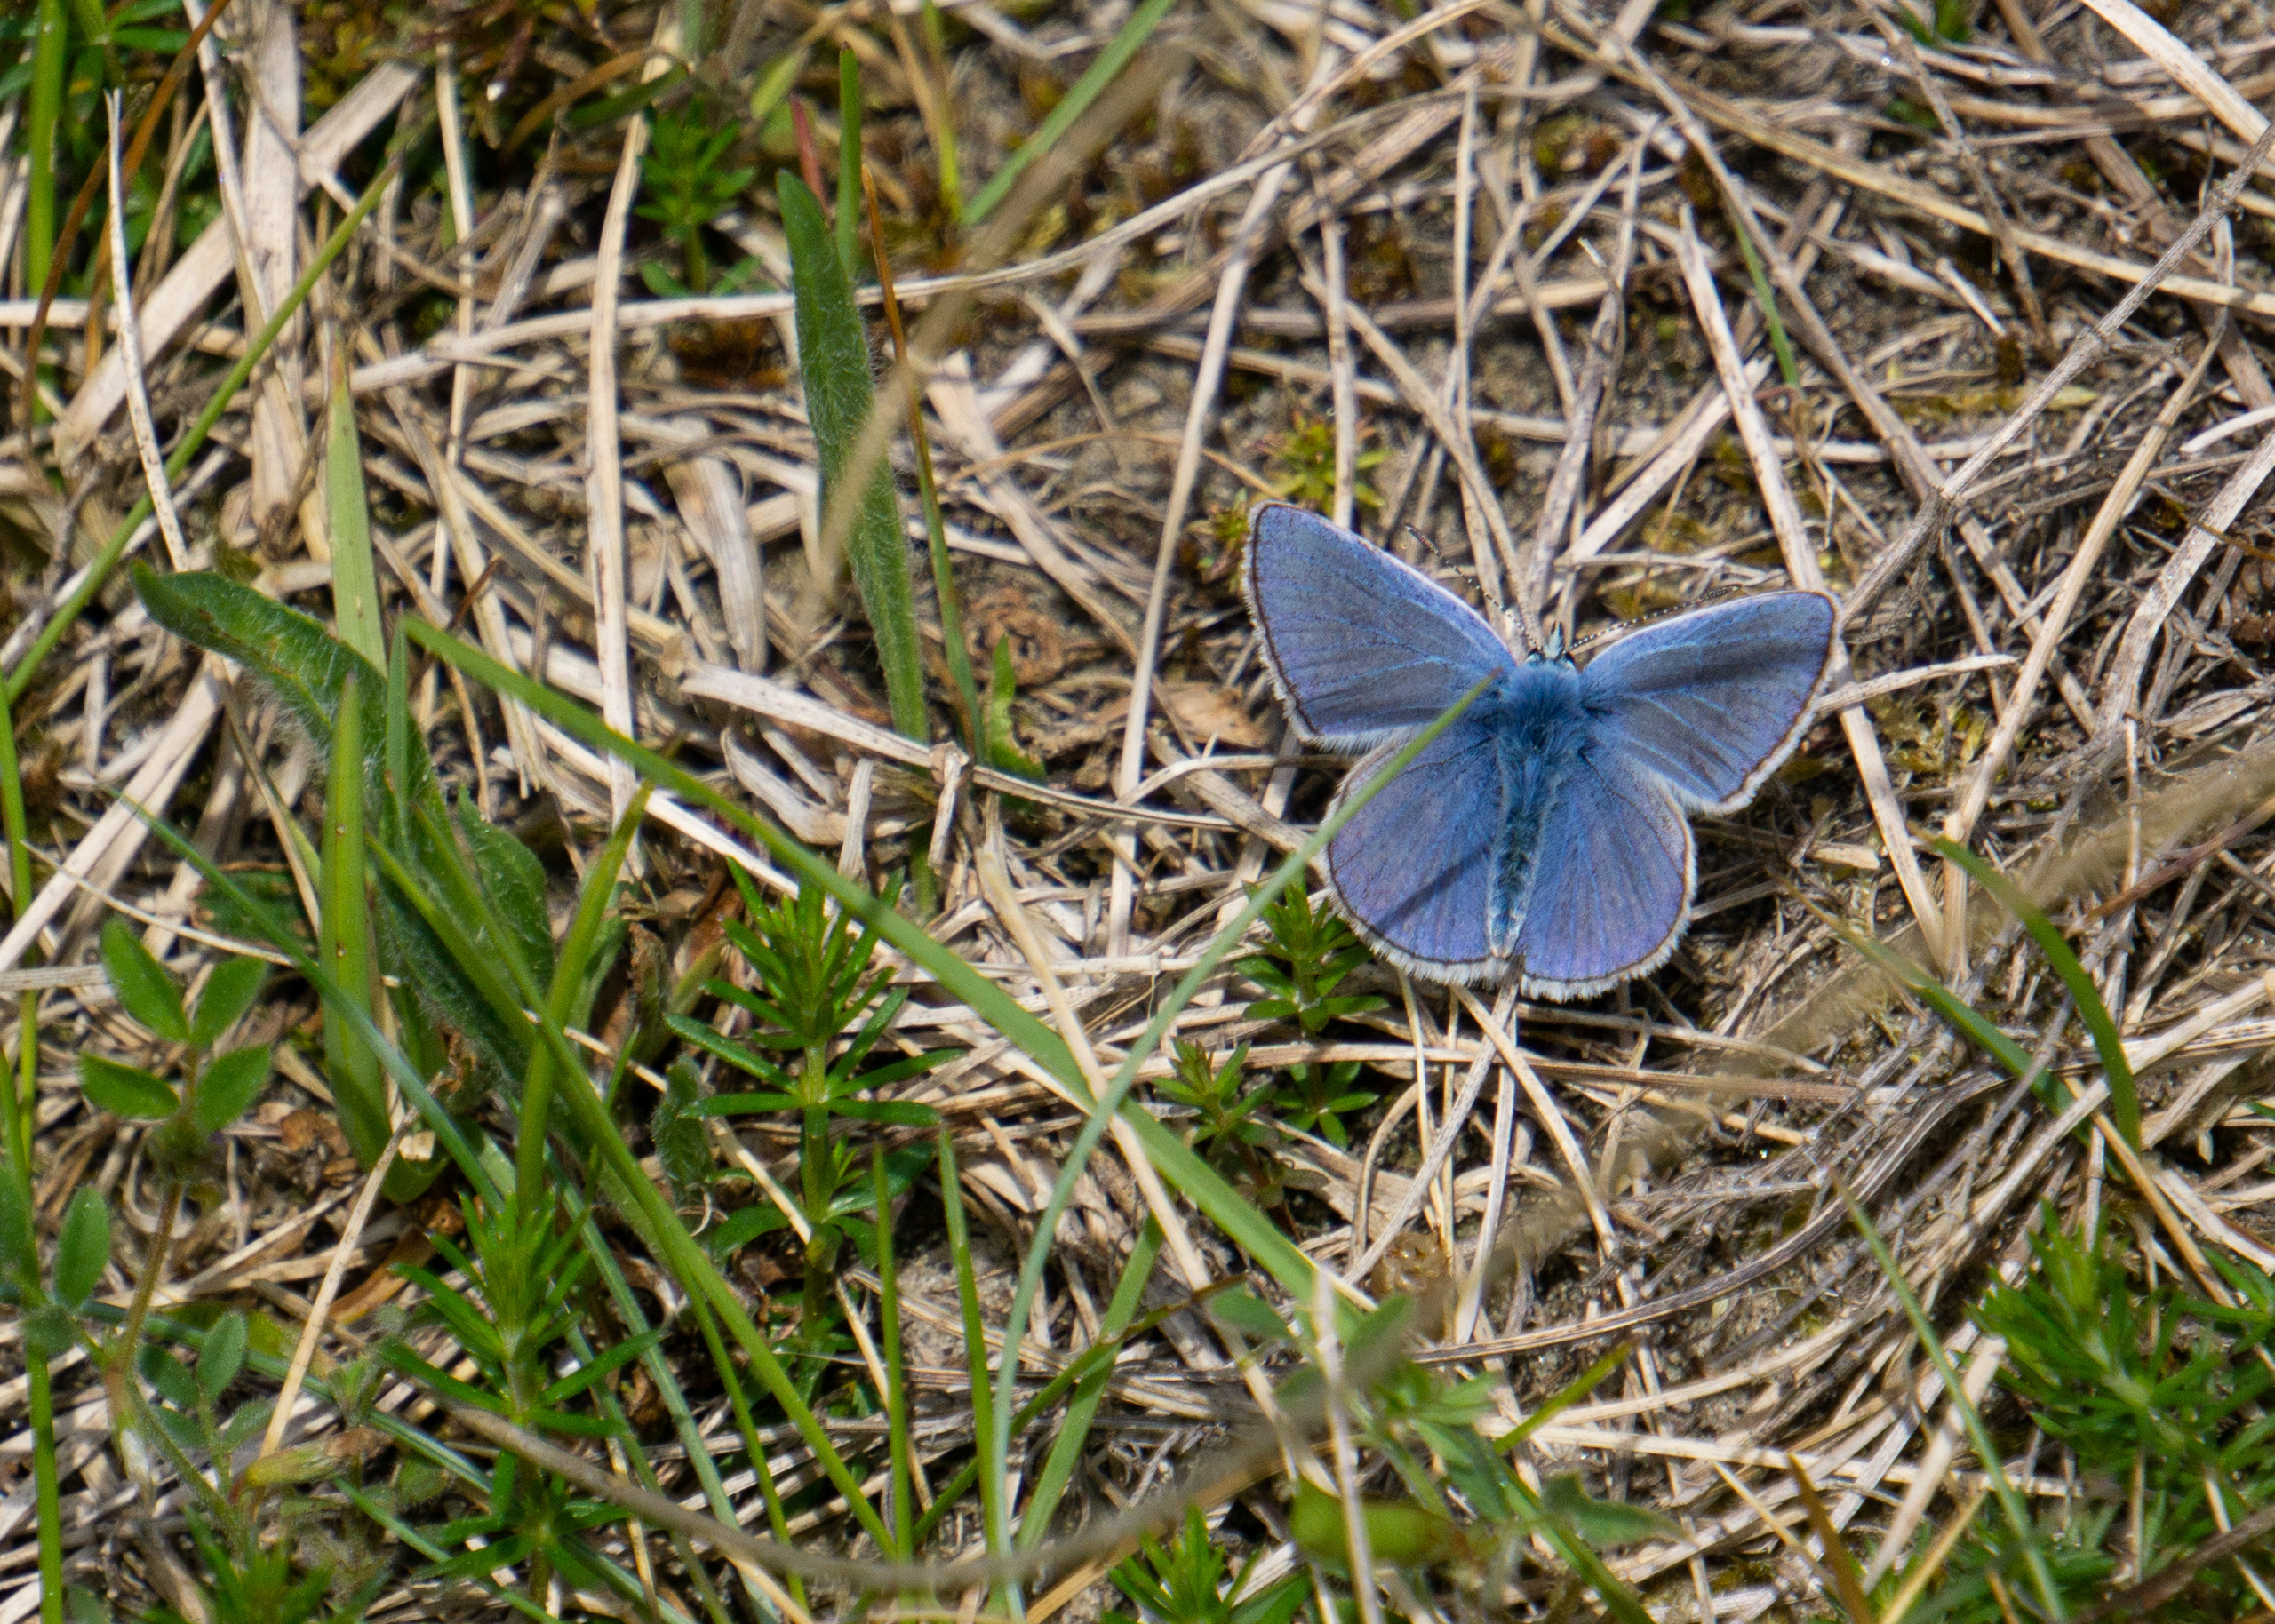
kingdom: Animalia
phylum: Arthropoda
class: Insecta
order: Lepidoptera
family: Lycaenidae
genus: Polyommatus
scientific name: Polyommatus icarus
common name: Almindelig blåfugl
